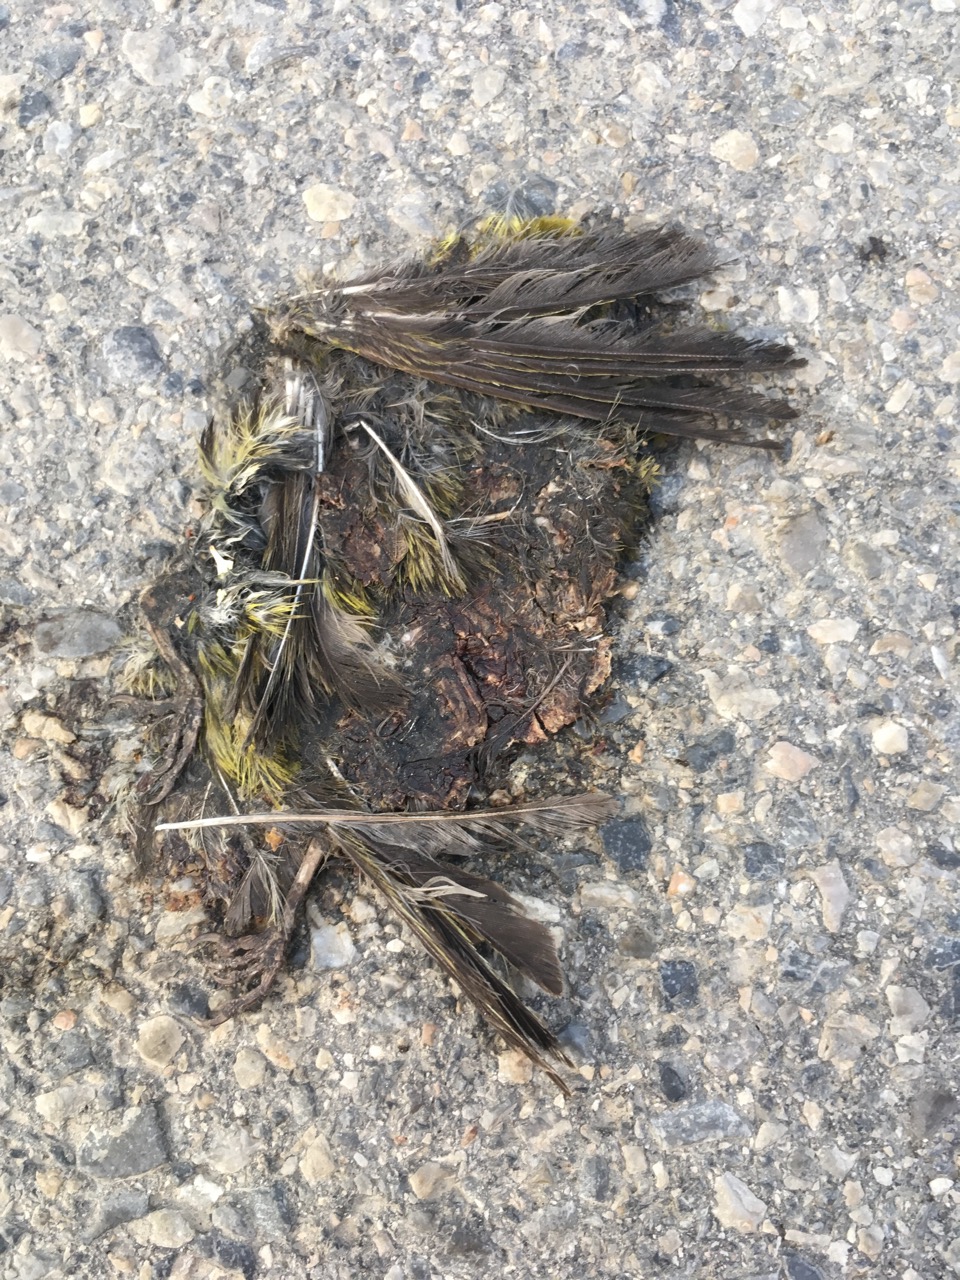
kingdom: Animalia
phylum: Chordata
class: Aves
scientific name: Aves
